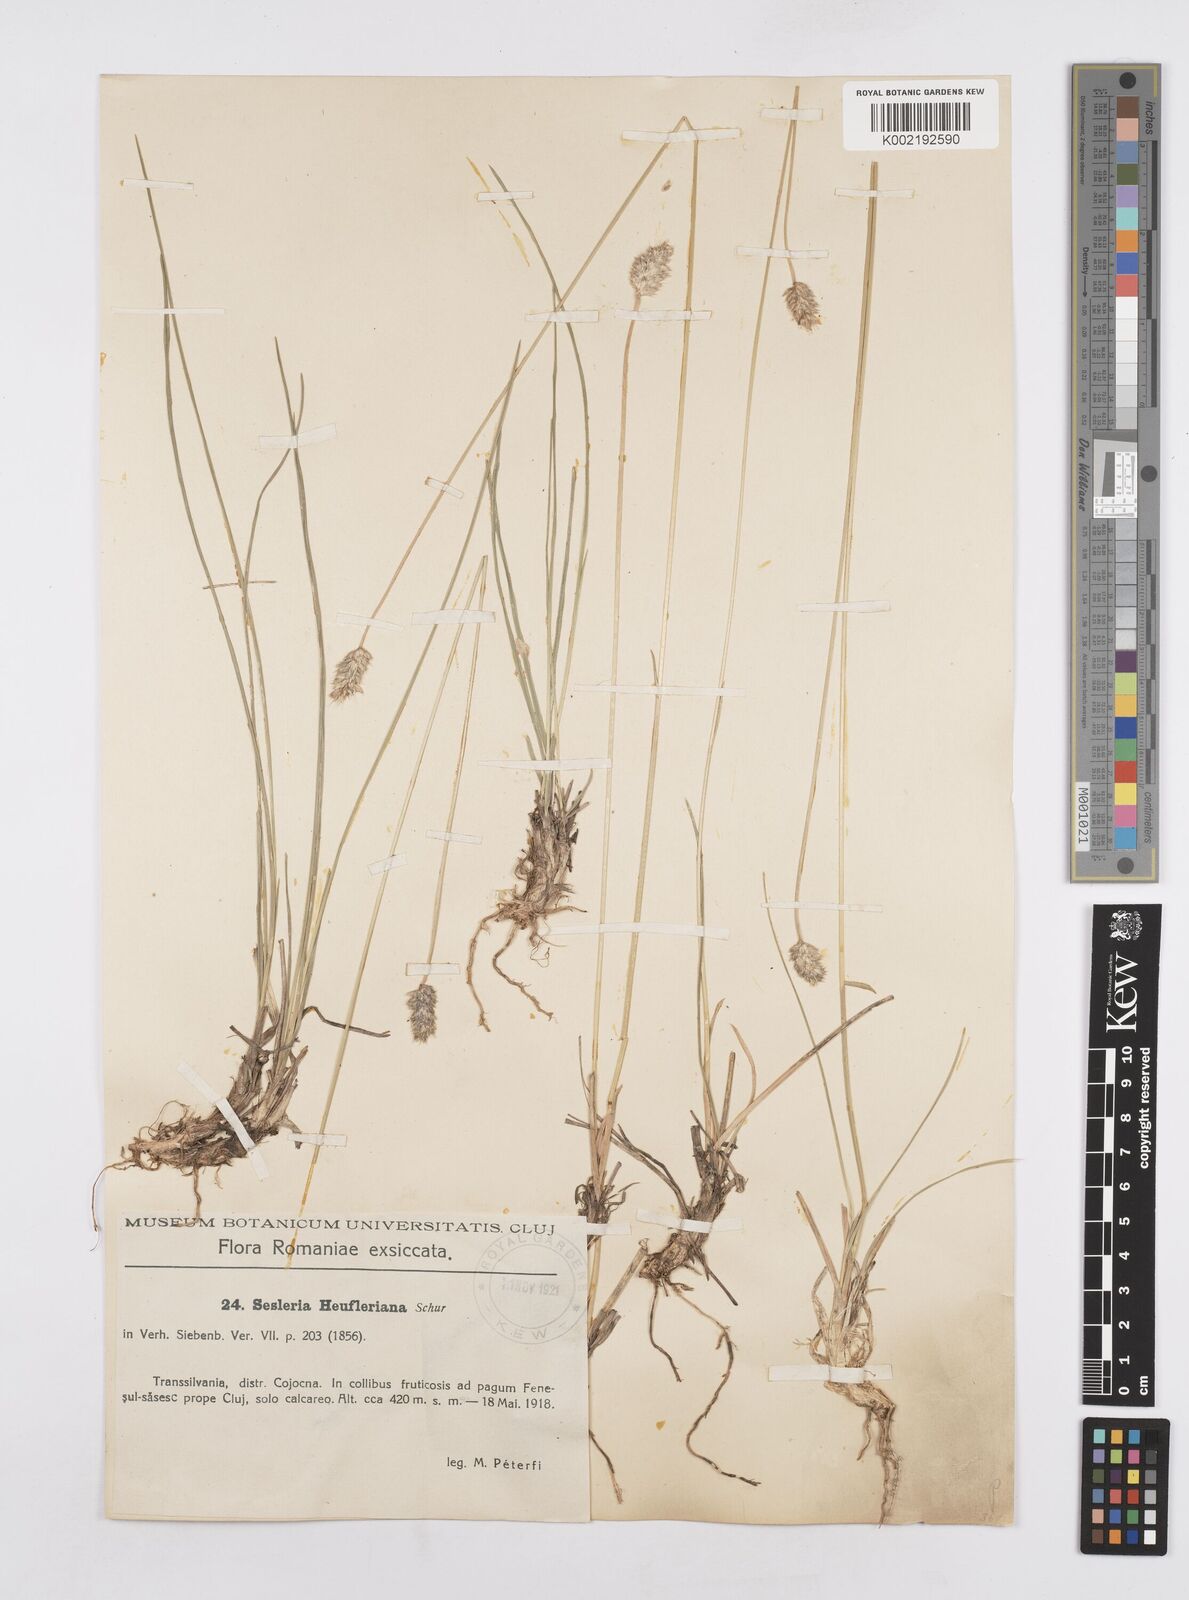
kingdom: Plantae
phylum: Tracheophyta
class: Liliopsida
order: Poales
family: Poaceae
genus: Sesleria
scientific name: Sesleria heufleriana
